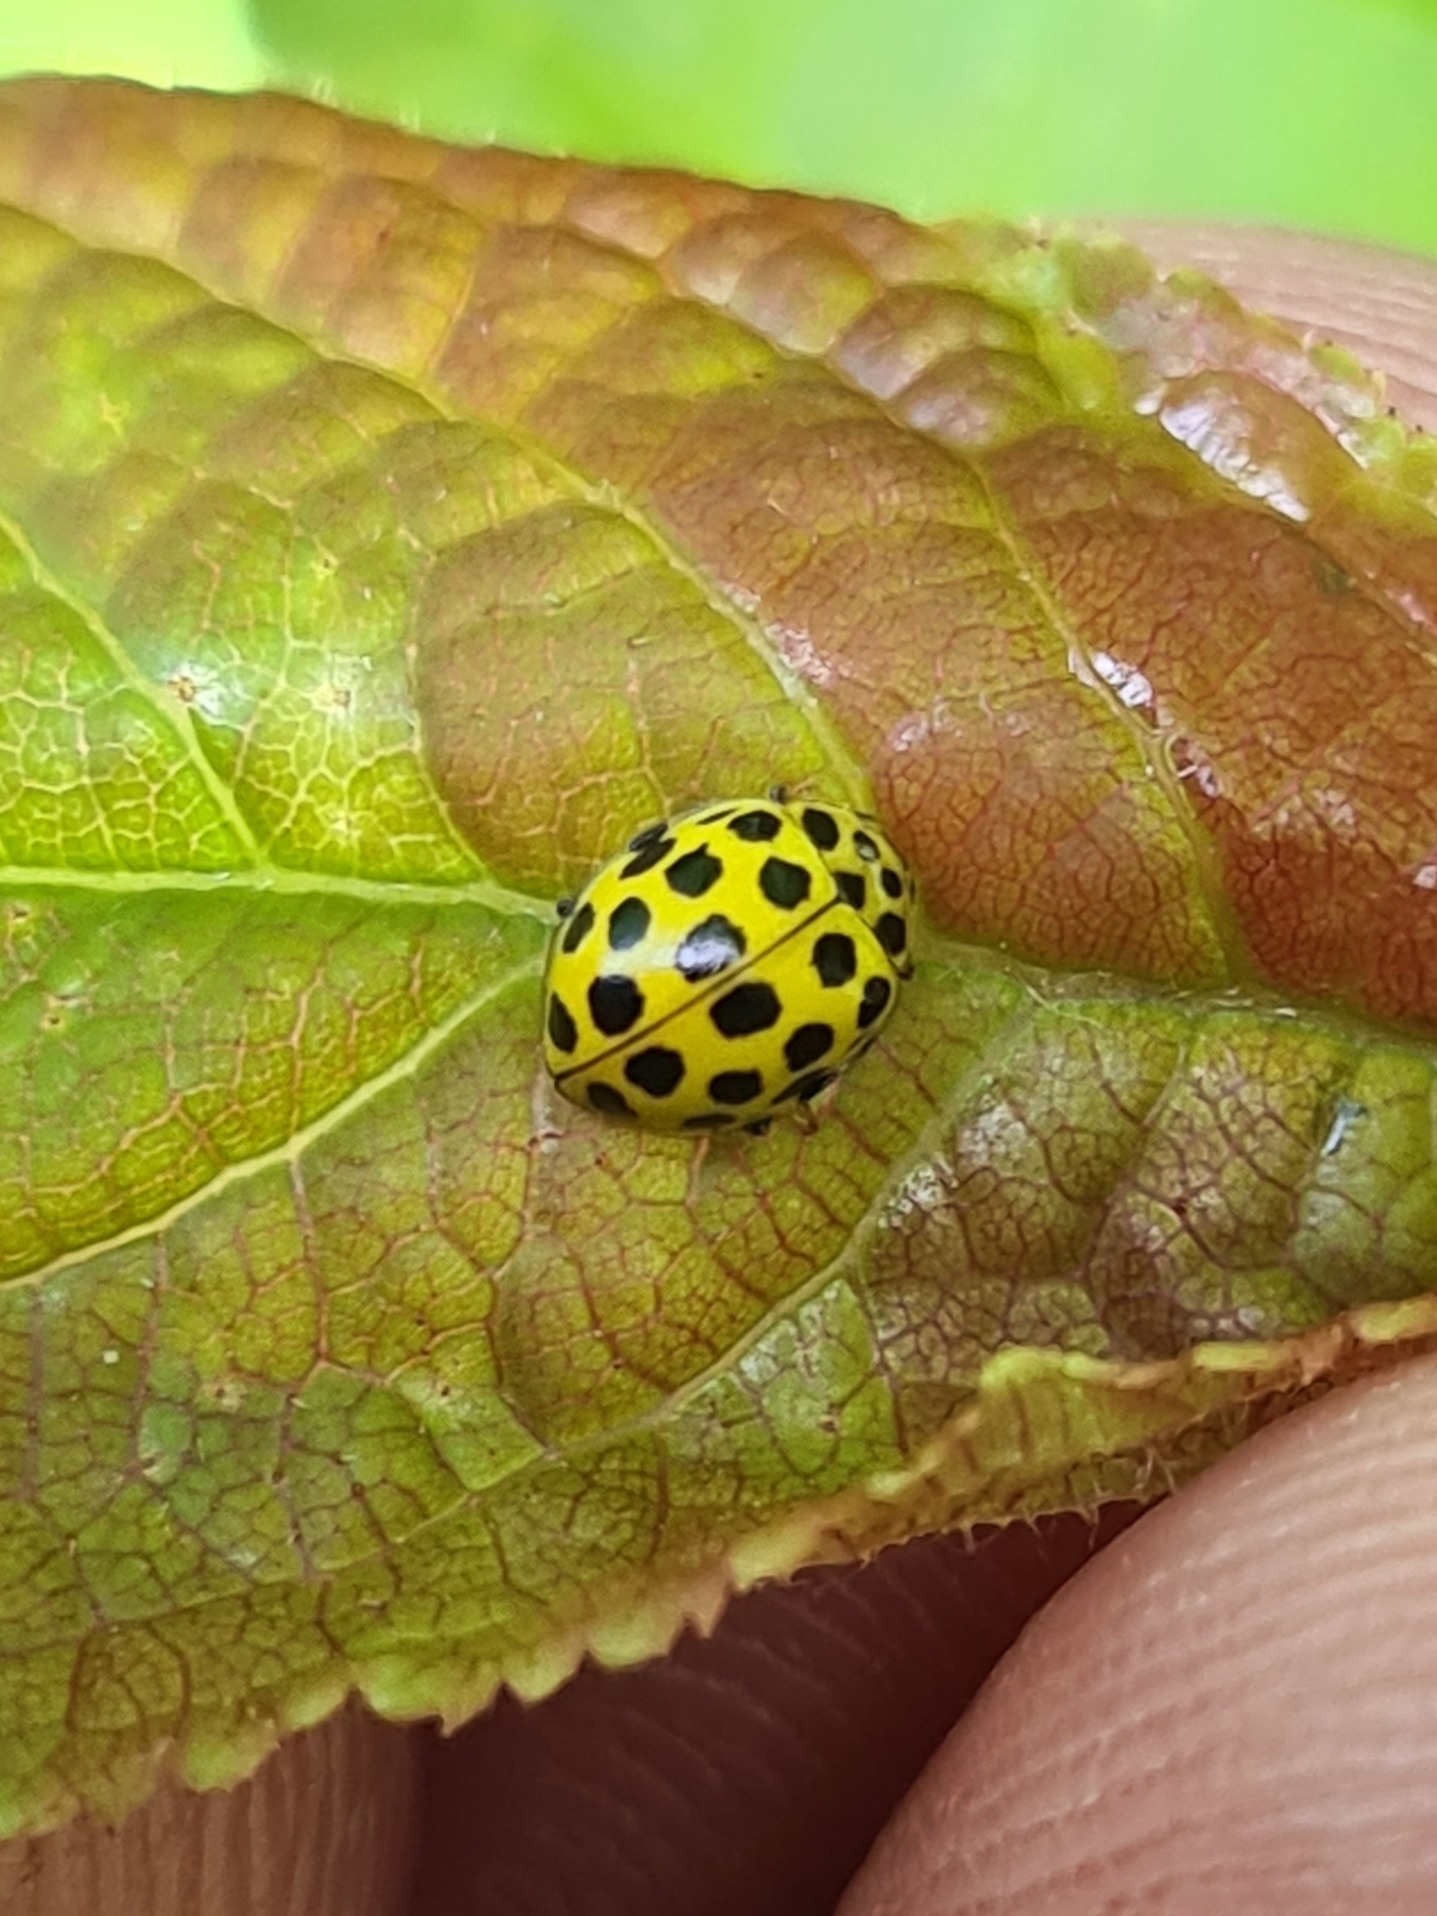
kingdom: Animalia
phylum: Arthropoda
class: Insecta
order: Coleoptera
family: Coccinellidae
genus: Psyllobora
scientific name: Psyllobora vigintiduopunctata
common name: Toogtyveplettet mariehøne
